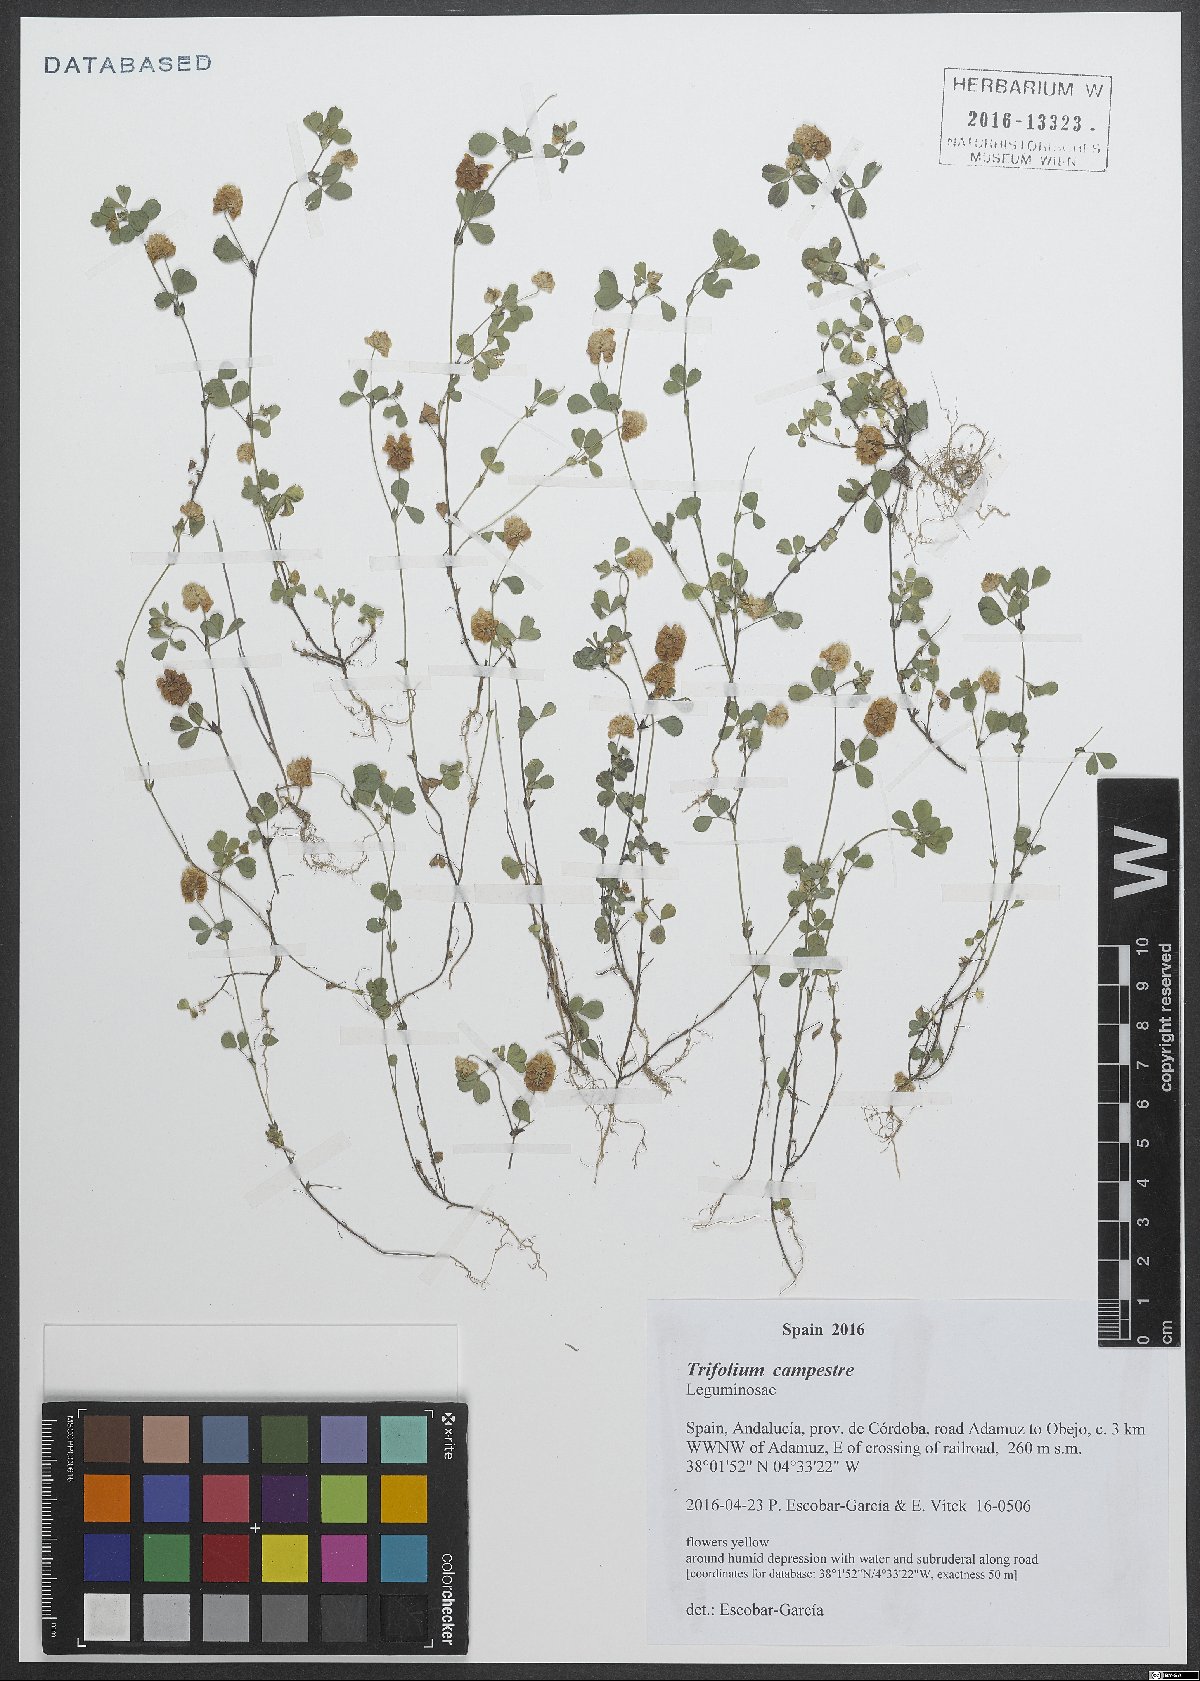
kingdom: Plantae
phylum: Tracheophyta
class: Magnoliopsida
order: Fabales
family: Fabaceae
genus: Trifolium
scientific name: Trifolium campestre
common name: Field clover
